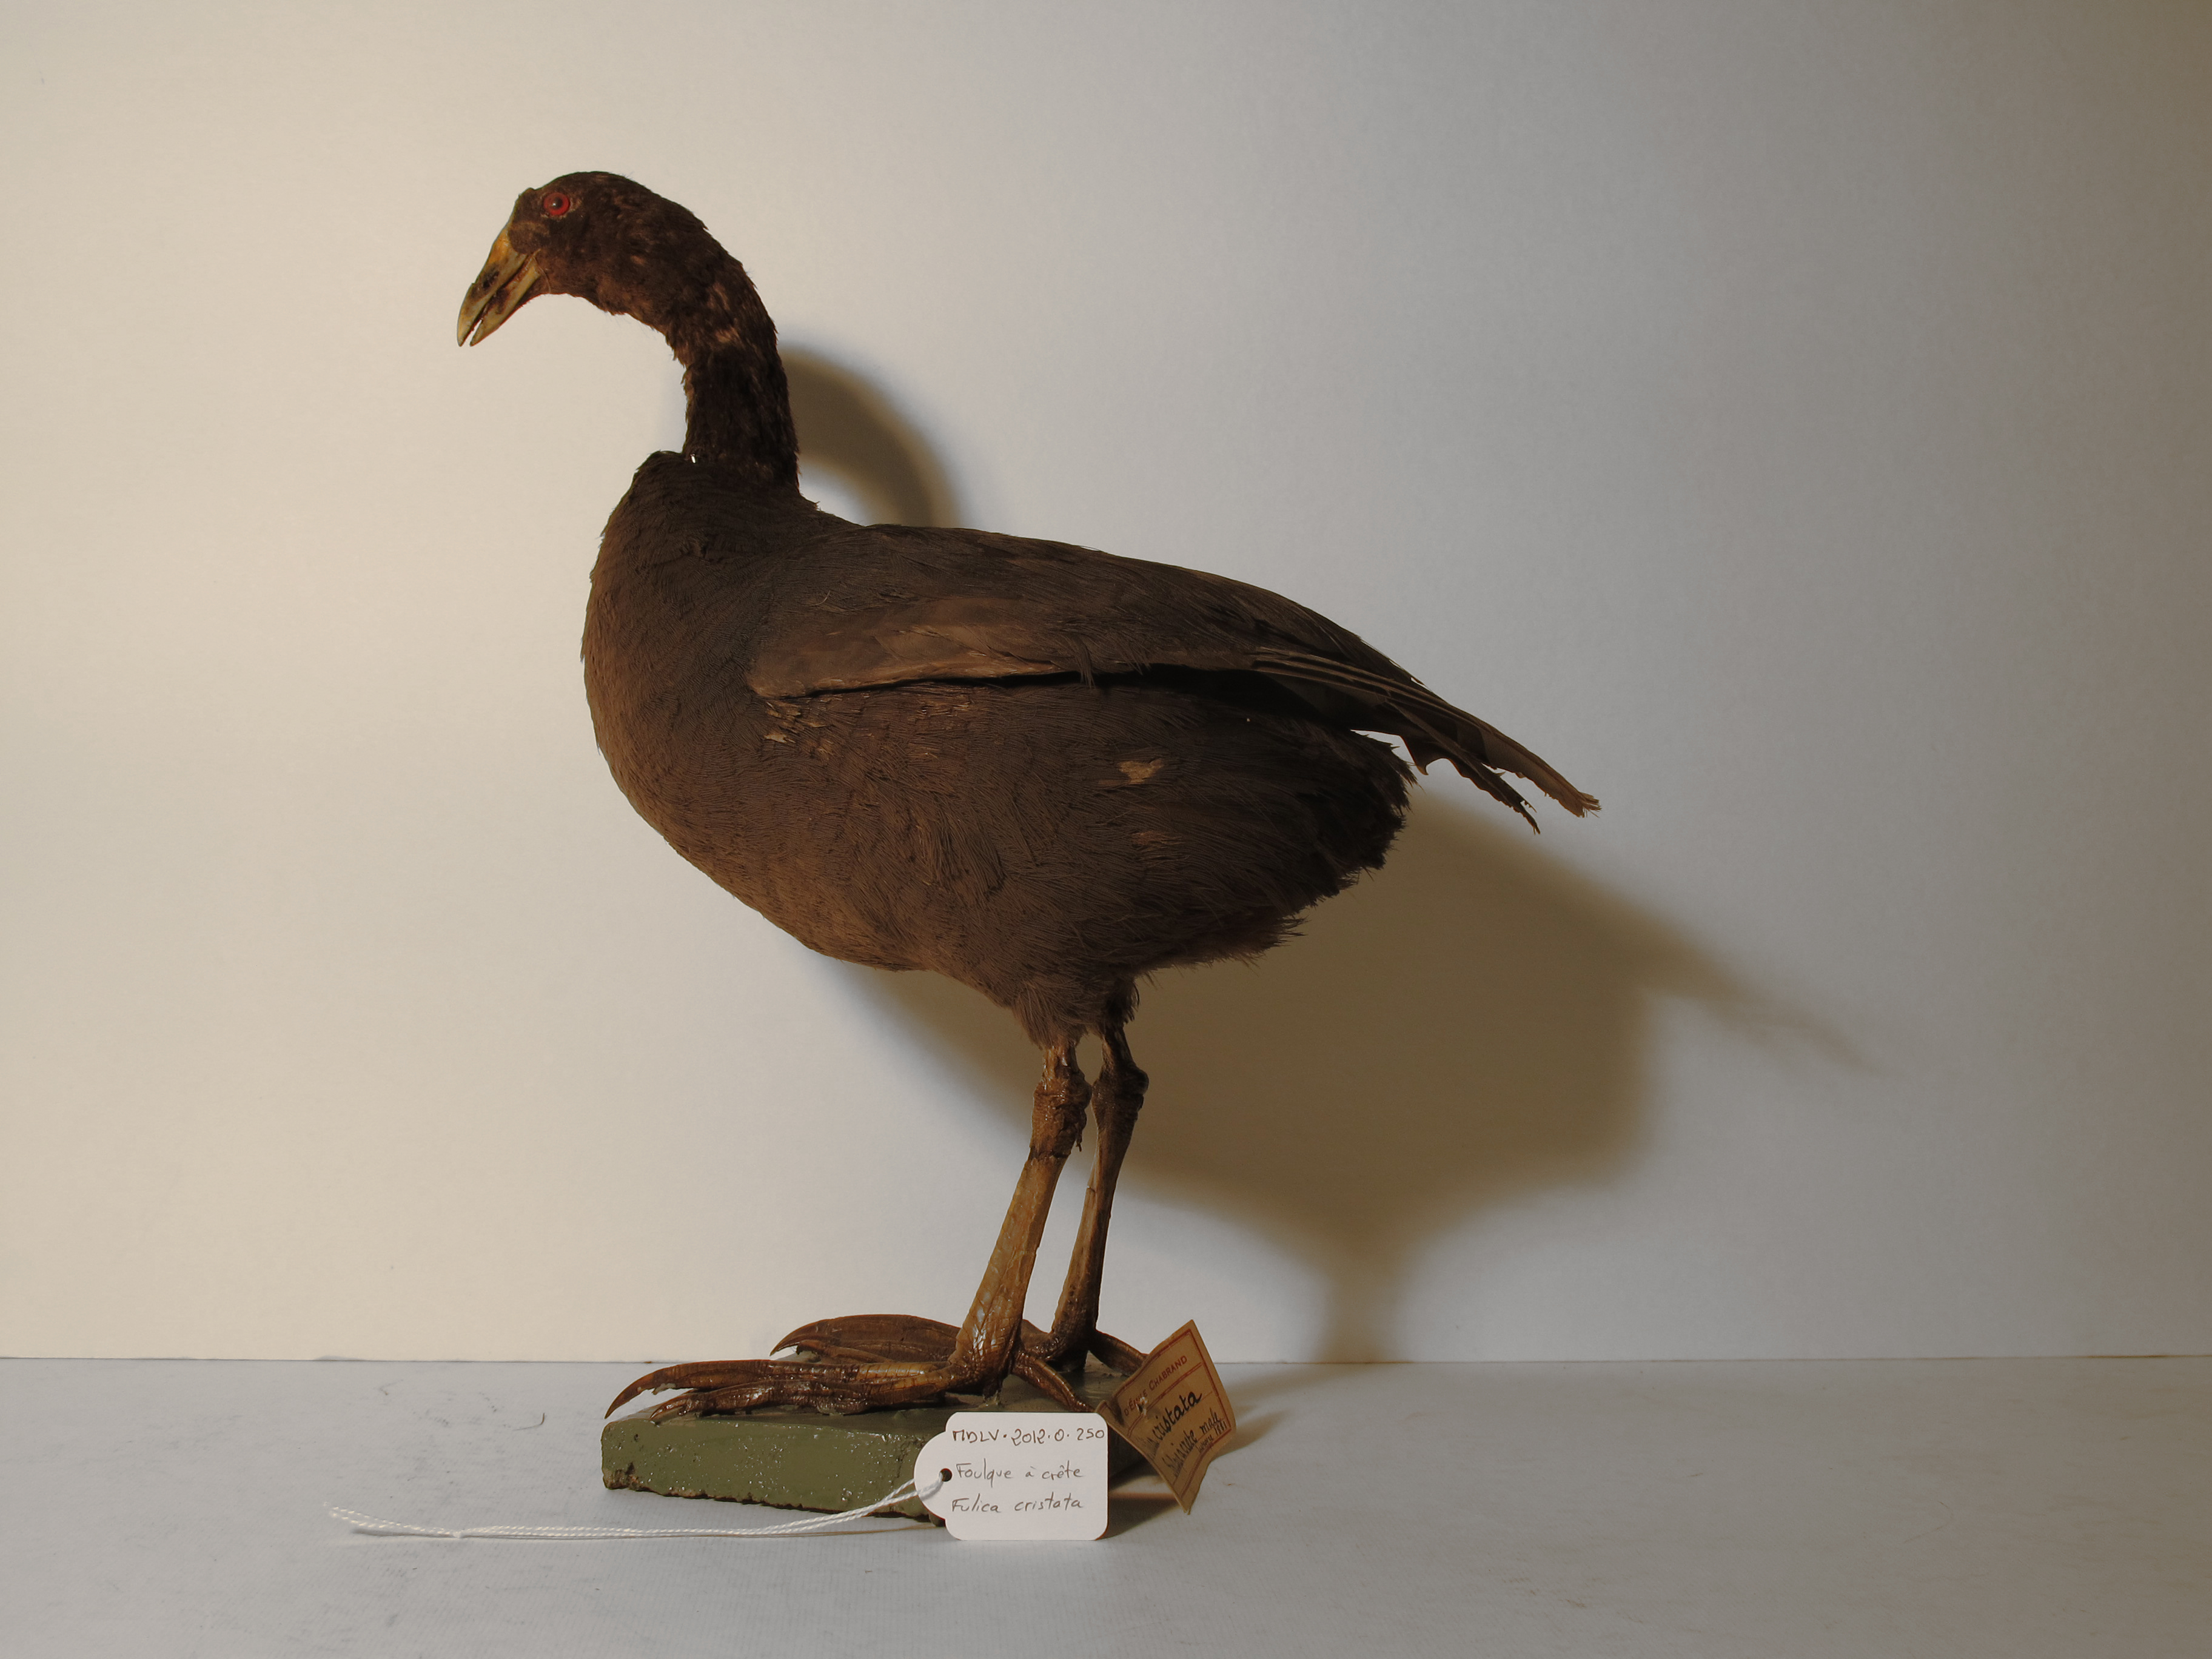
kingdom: Animalia
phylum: Chordata
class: Aves
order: Gruiformes
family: Rallidae
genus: Fulica
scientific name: Fulica cristata
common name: Red-knobbed Coot
